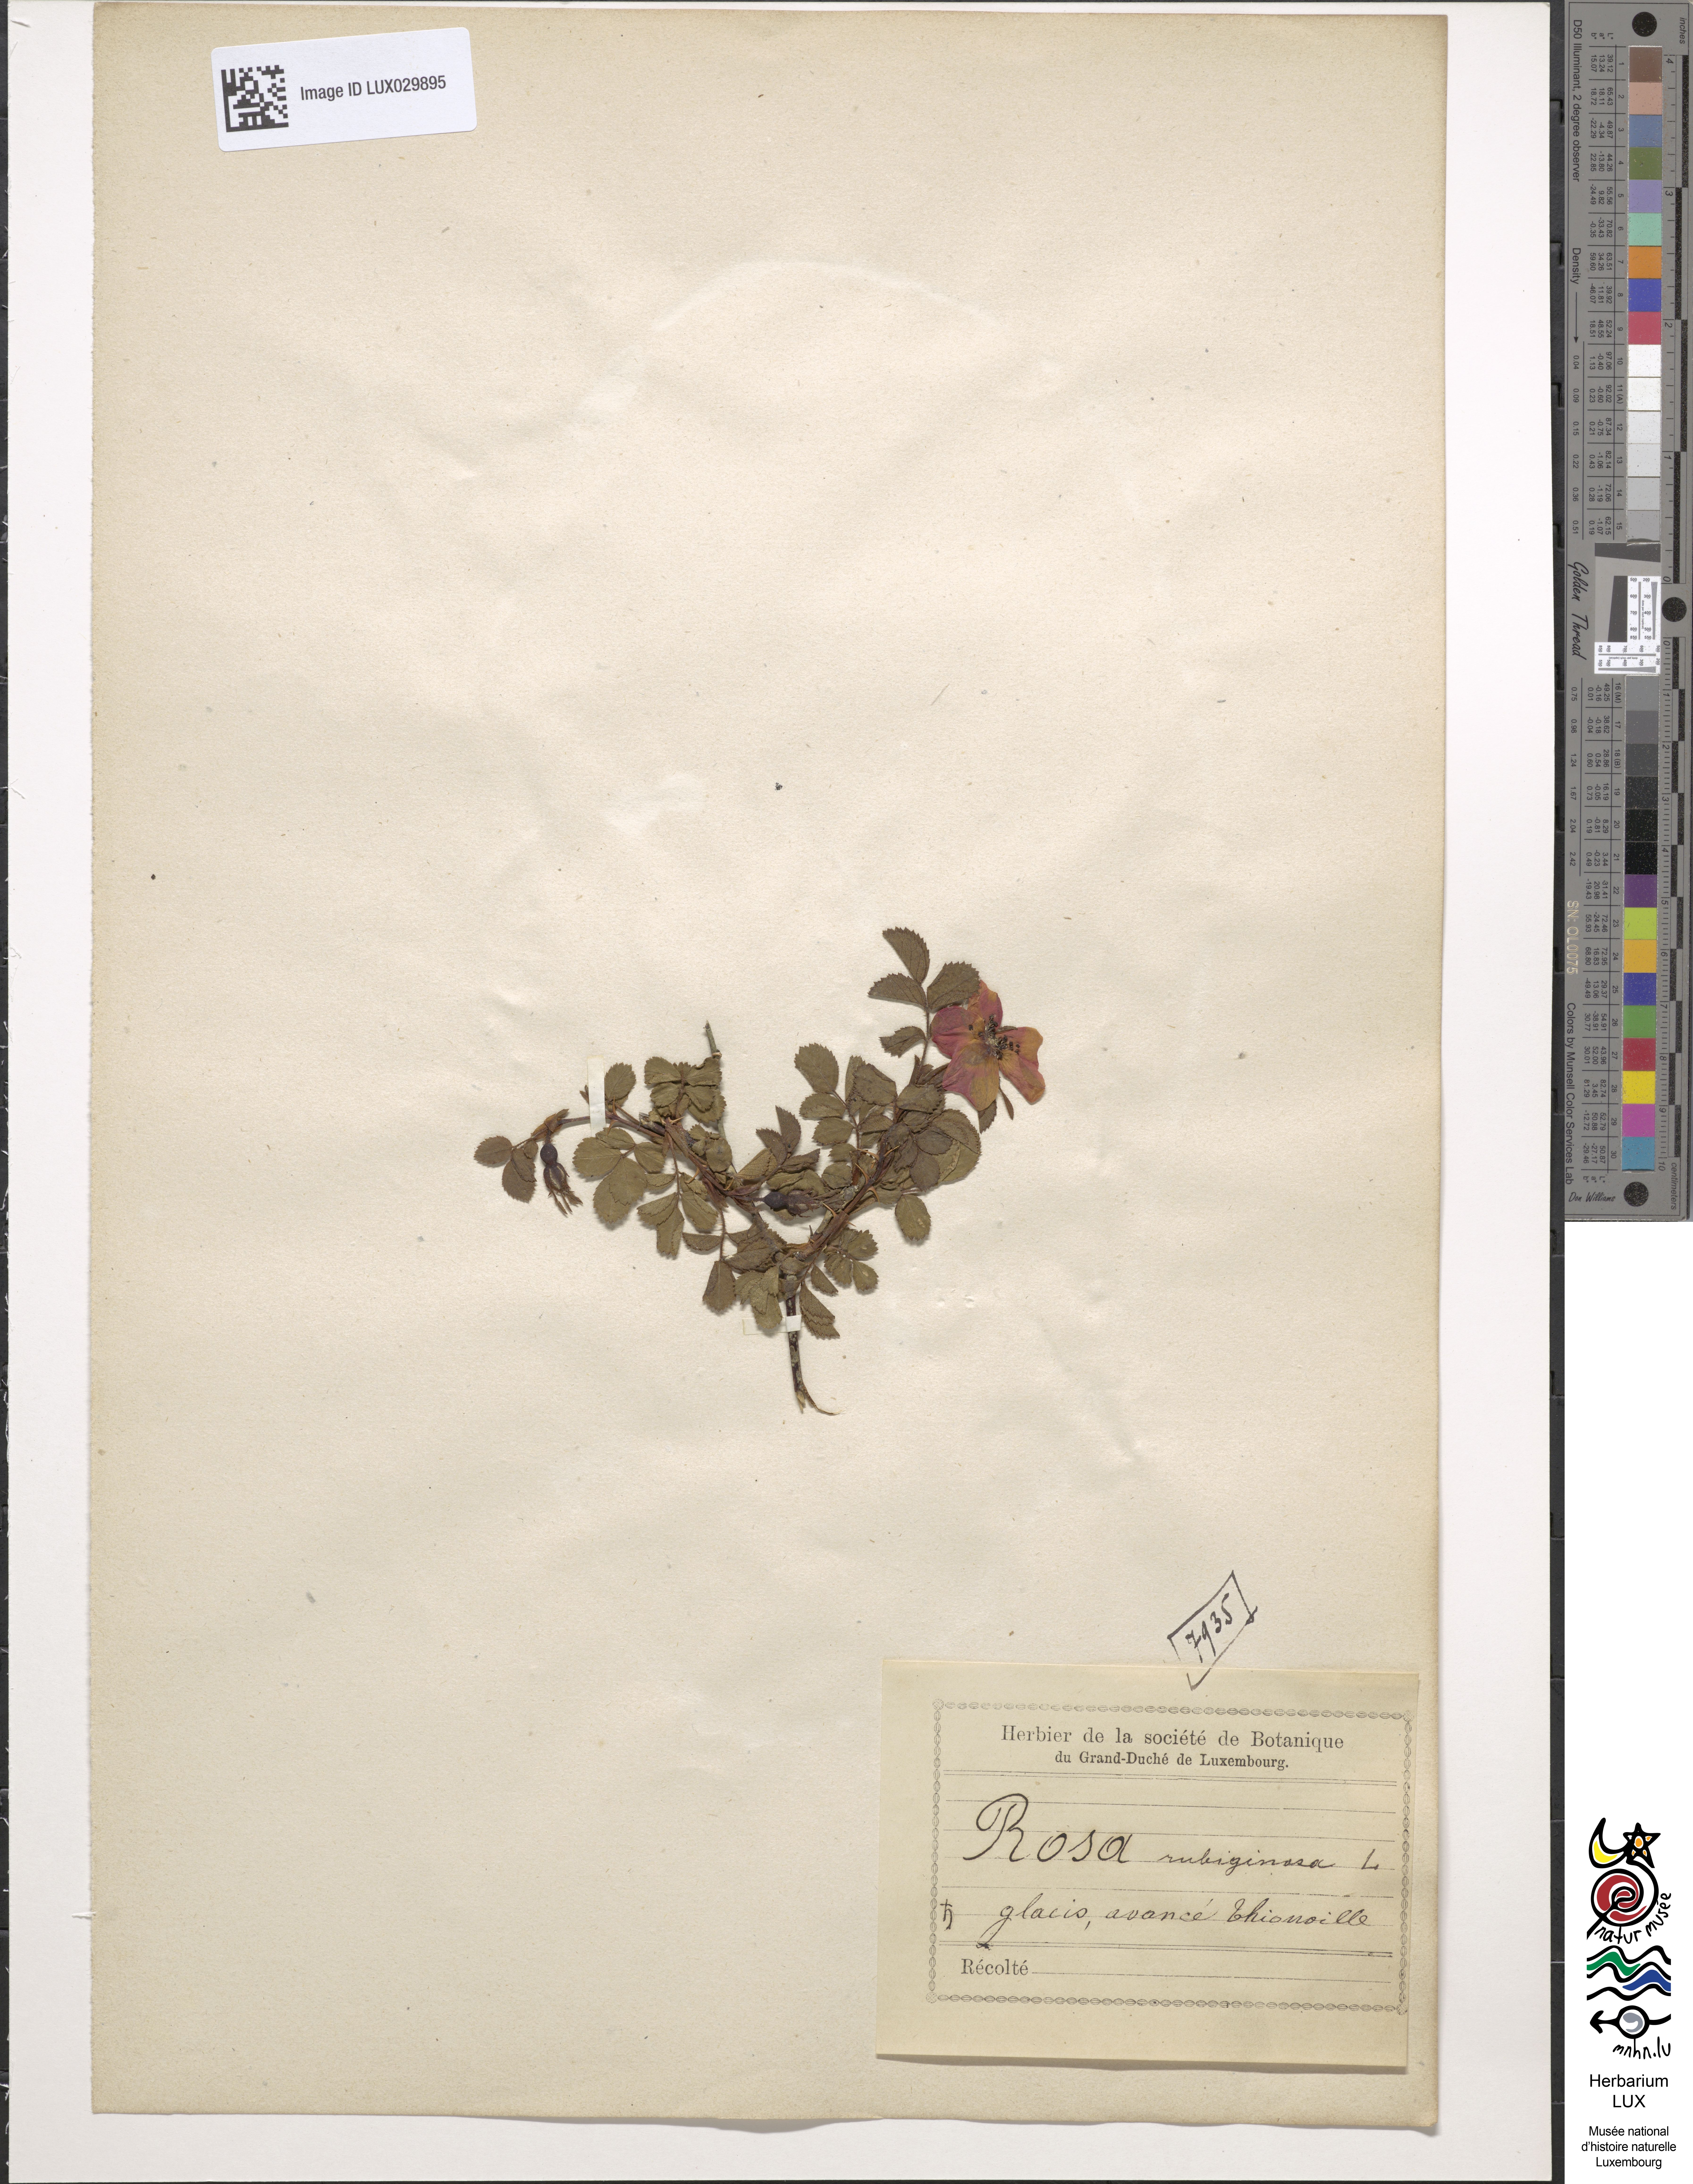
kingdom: Plantae
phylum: Tracheophyta
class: Magnoliopsida
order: Rosales
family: Rosaceae
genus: Rosa
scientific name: Rosa rubiginosa
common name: Sweet-briar
